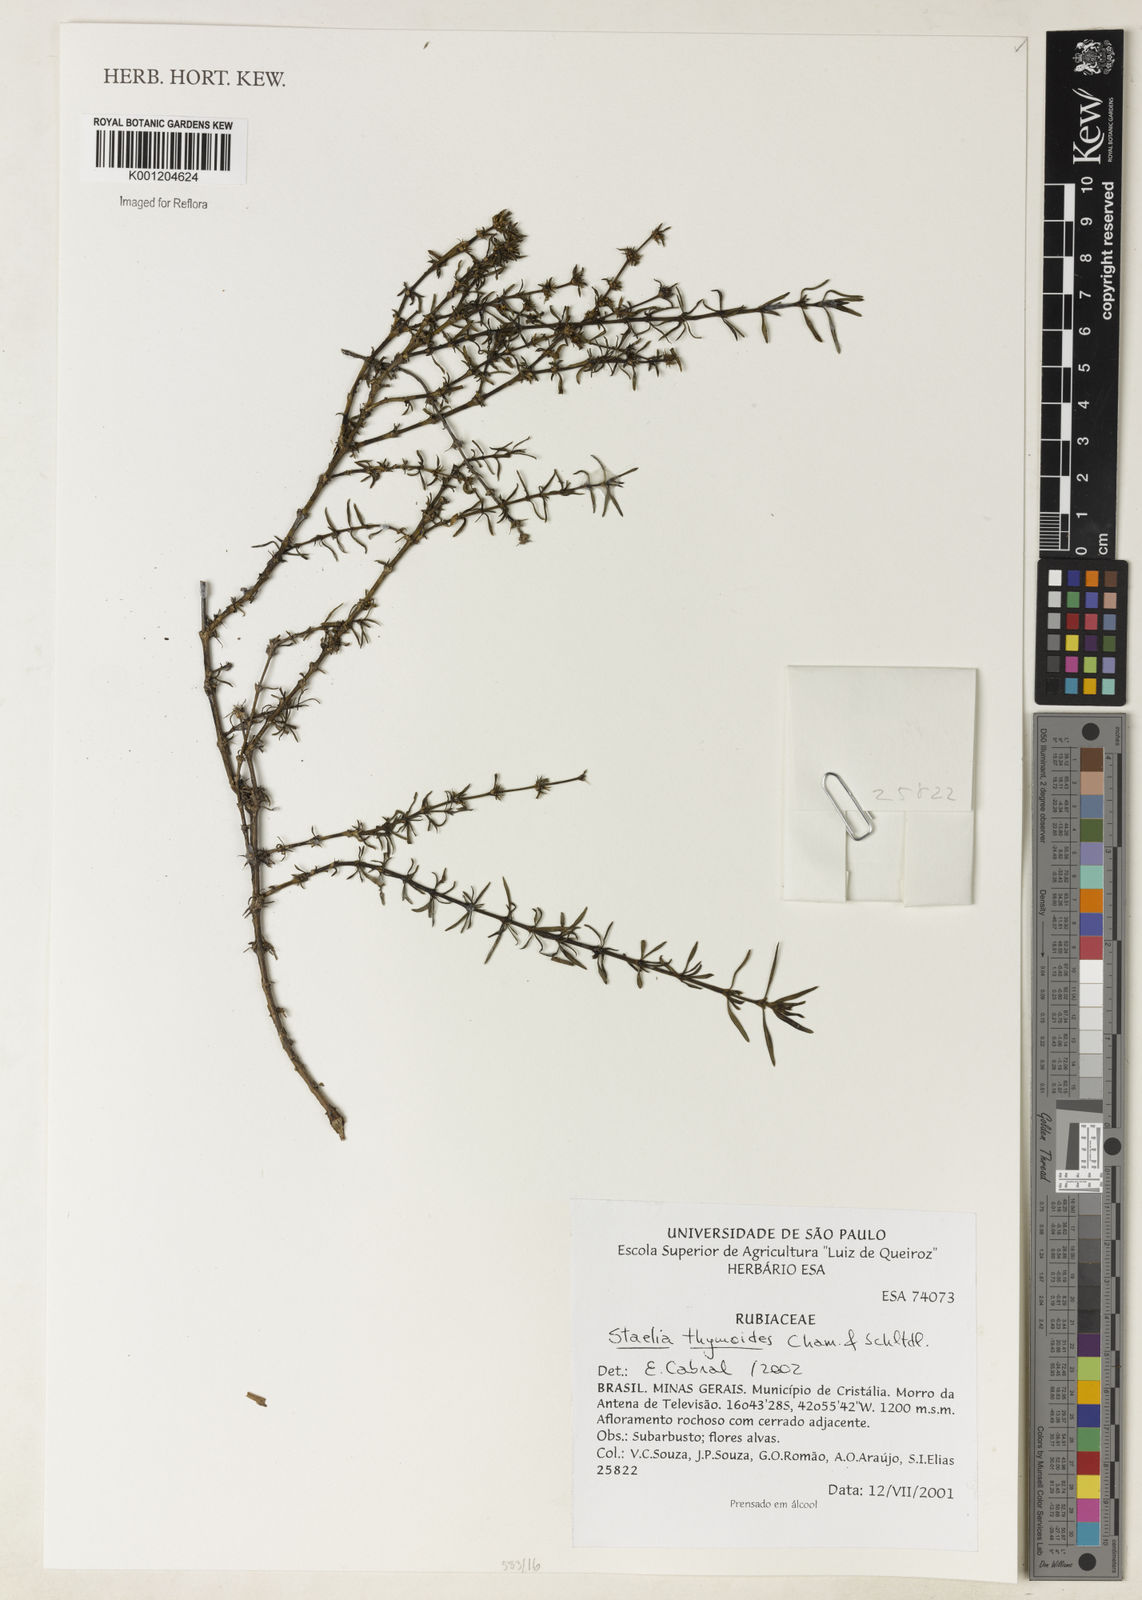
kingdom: Plantae
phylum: Tracheophyta
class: Magnoliopsida
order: Gentianales
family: Rubiaceae
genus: Staelia
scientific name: Staelia thymoides
